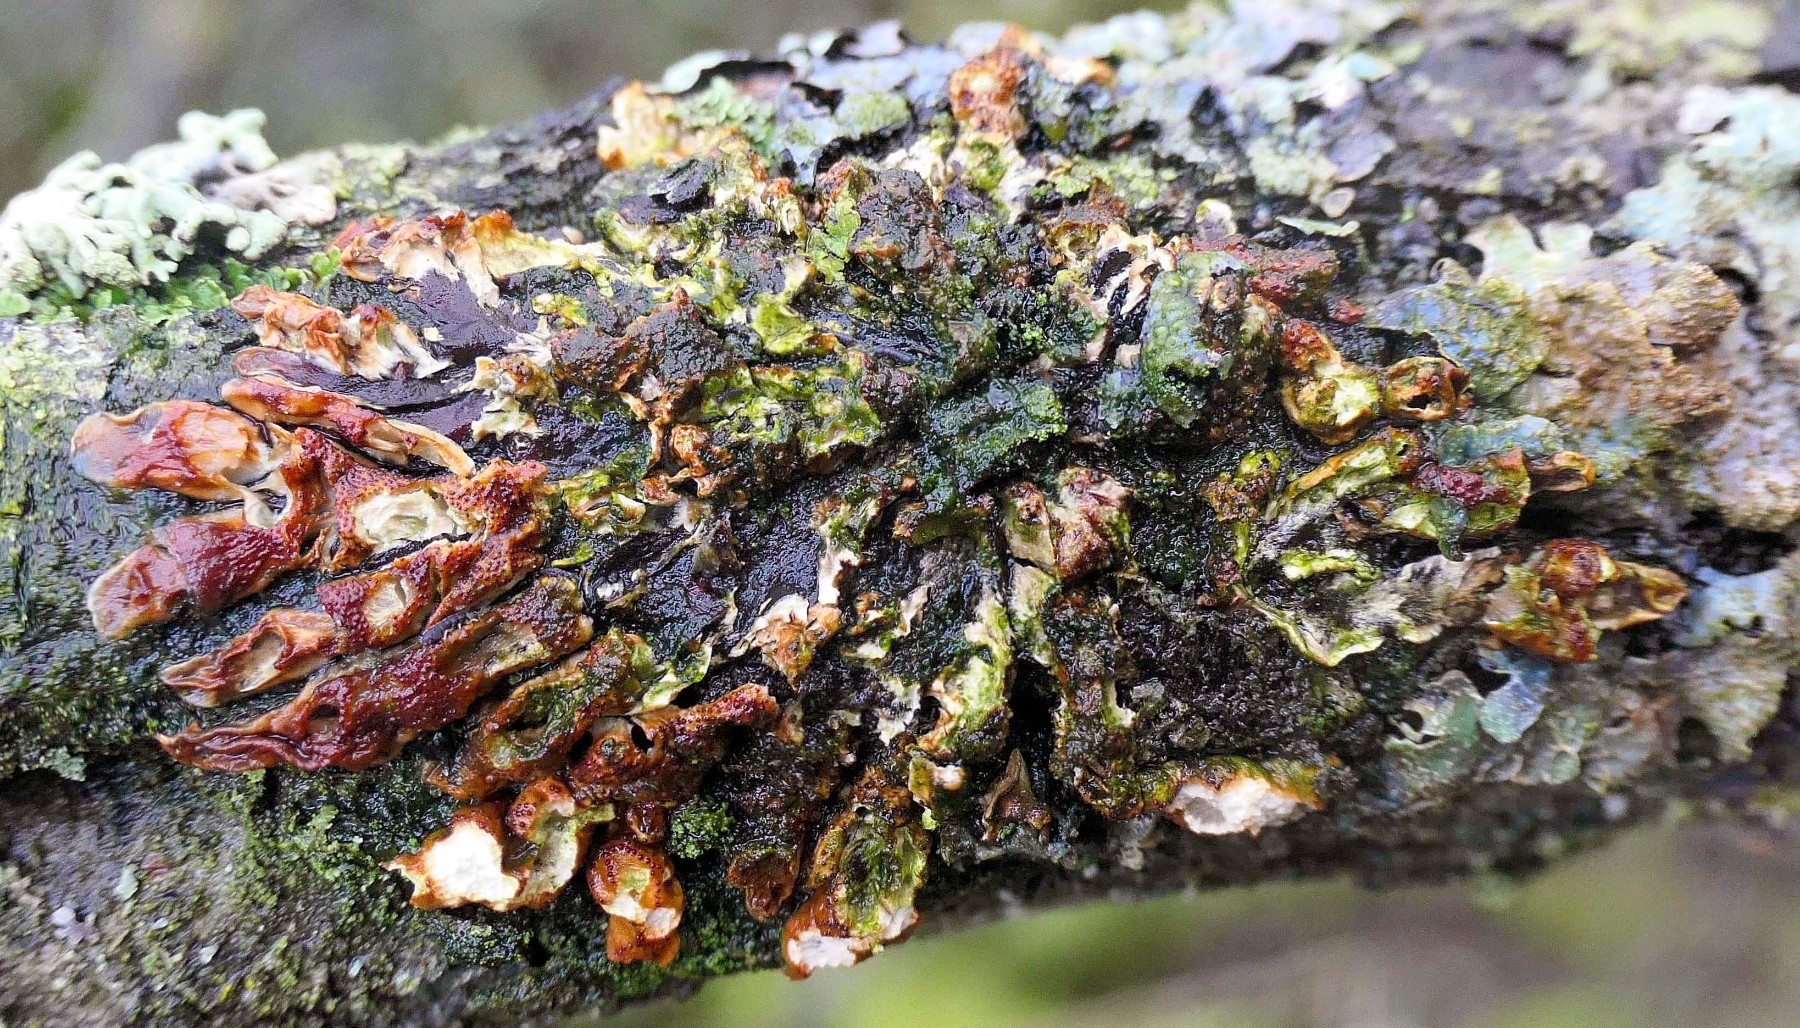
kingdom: Fungi
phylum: Ascomycota
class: Sordariomycetes
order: Hypocreales
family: Hypocreaceae
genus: Hypocreopsis
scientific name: Hypocreopsis lichenoides
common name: pilfinger
